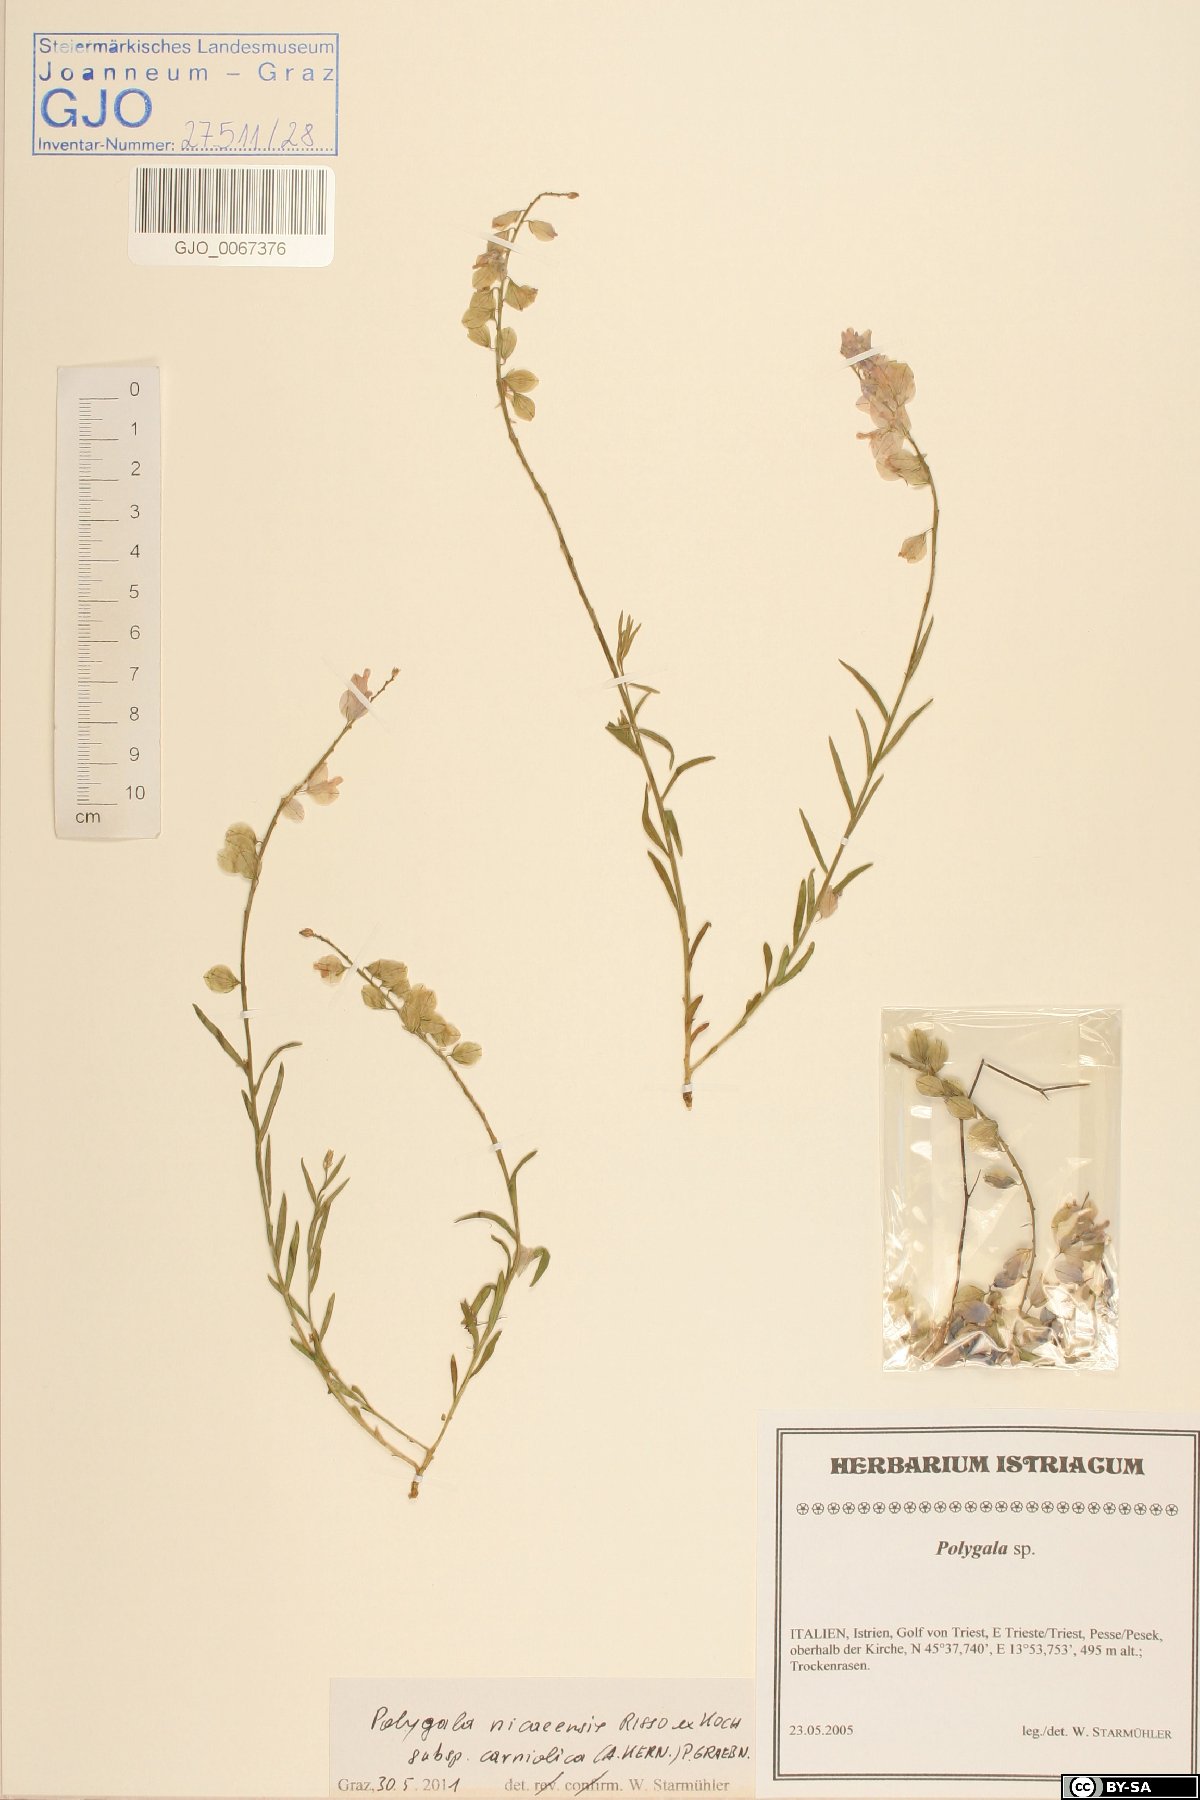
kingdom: Plantae
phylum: Tracheophyta
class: Magnoliopsida
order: Fabales
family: Polygalaceae
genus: Polygala
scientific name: Polygala
